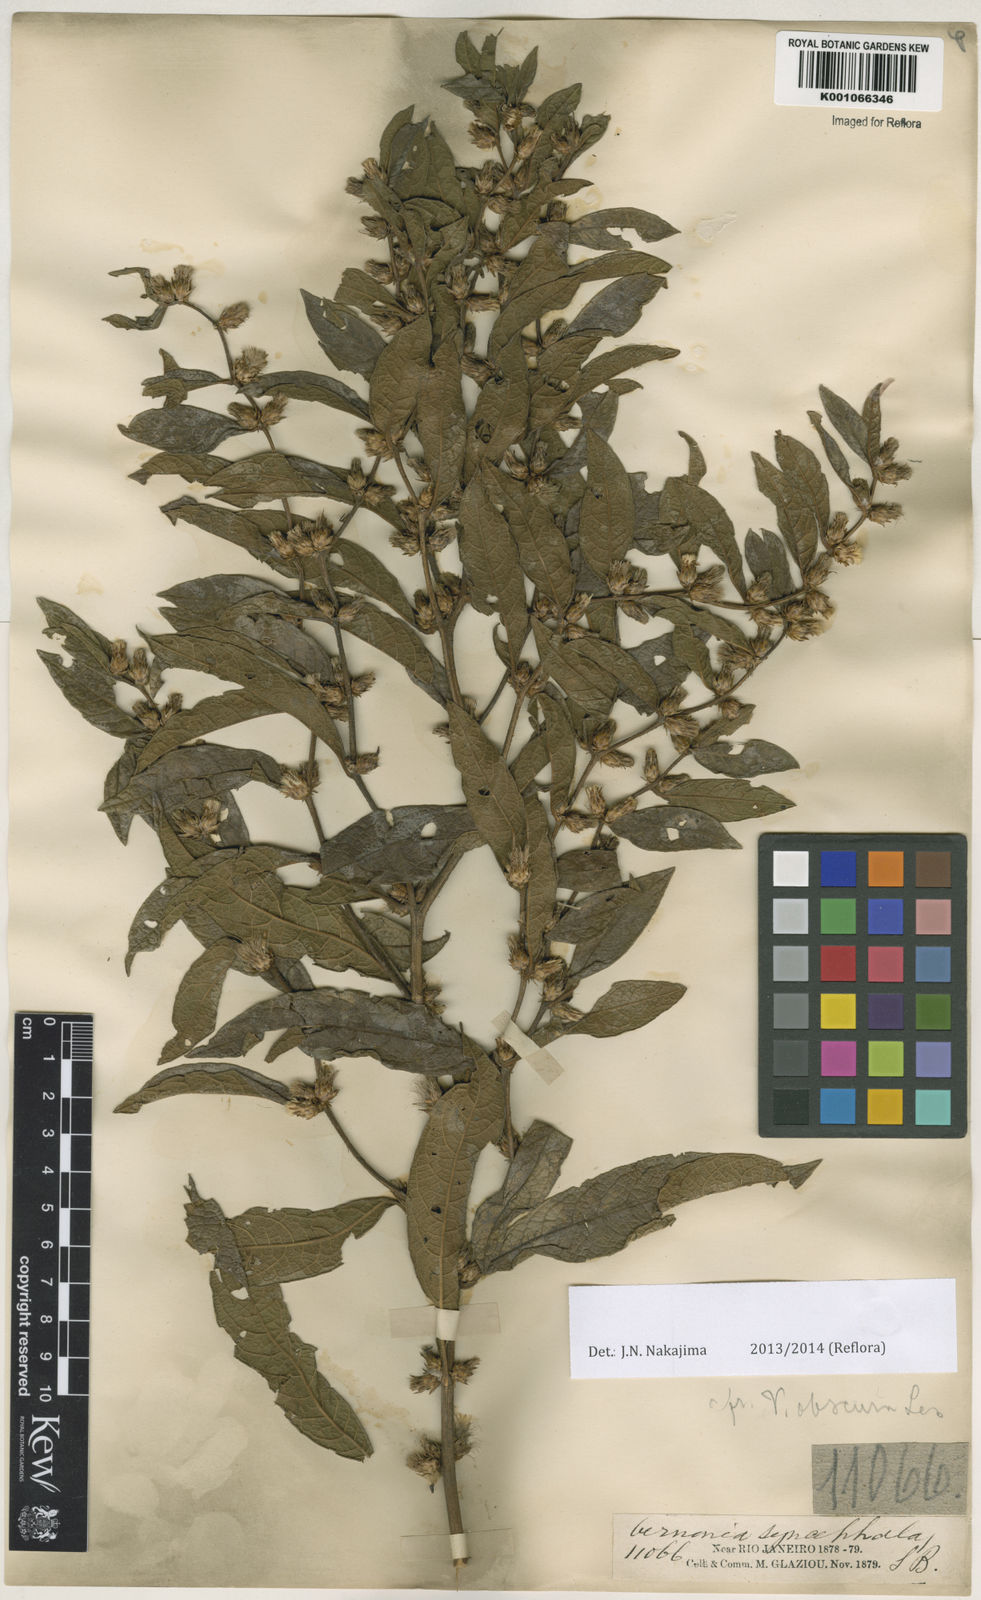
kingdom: Plantae
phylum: Tracheophyta
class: Magnoliopsida
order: Asterales
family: Asteraceae
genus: Lessingianthus
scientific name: Lessingianthus obscurus
